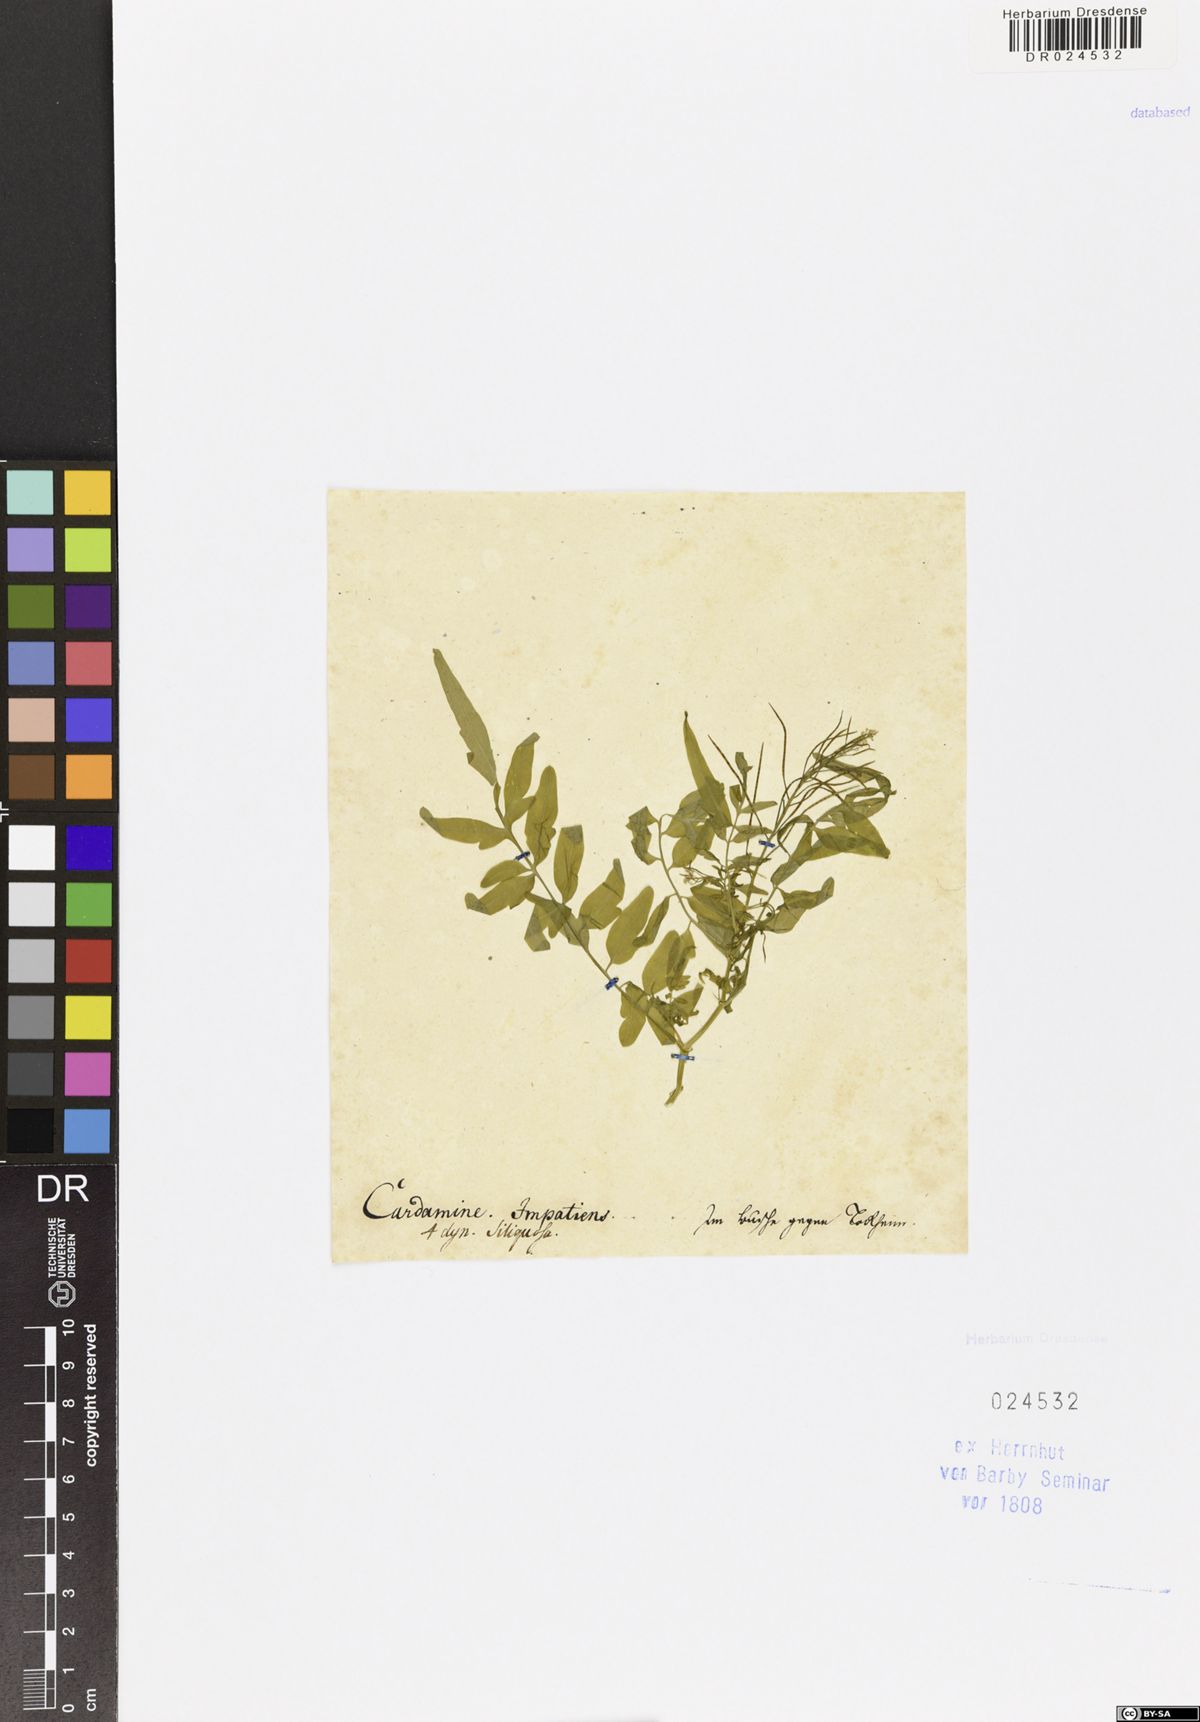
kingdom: Plantae
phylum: Tracheophyta
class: Magnoliopsida
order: Brassicales
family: Brassicaceae
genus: Cardamine
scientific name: Cardamine impatiens
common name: Narrow-leaved bitter-cress
